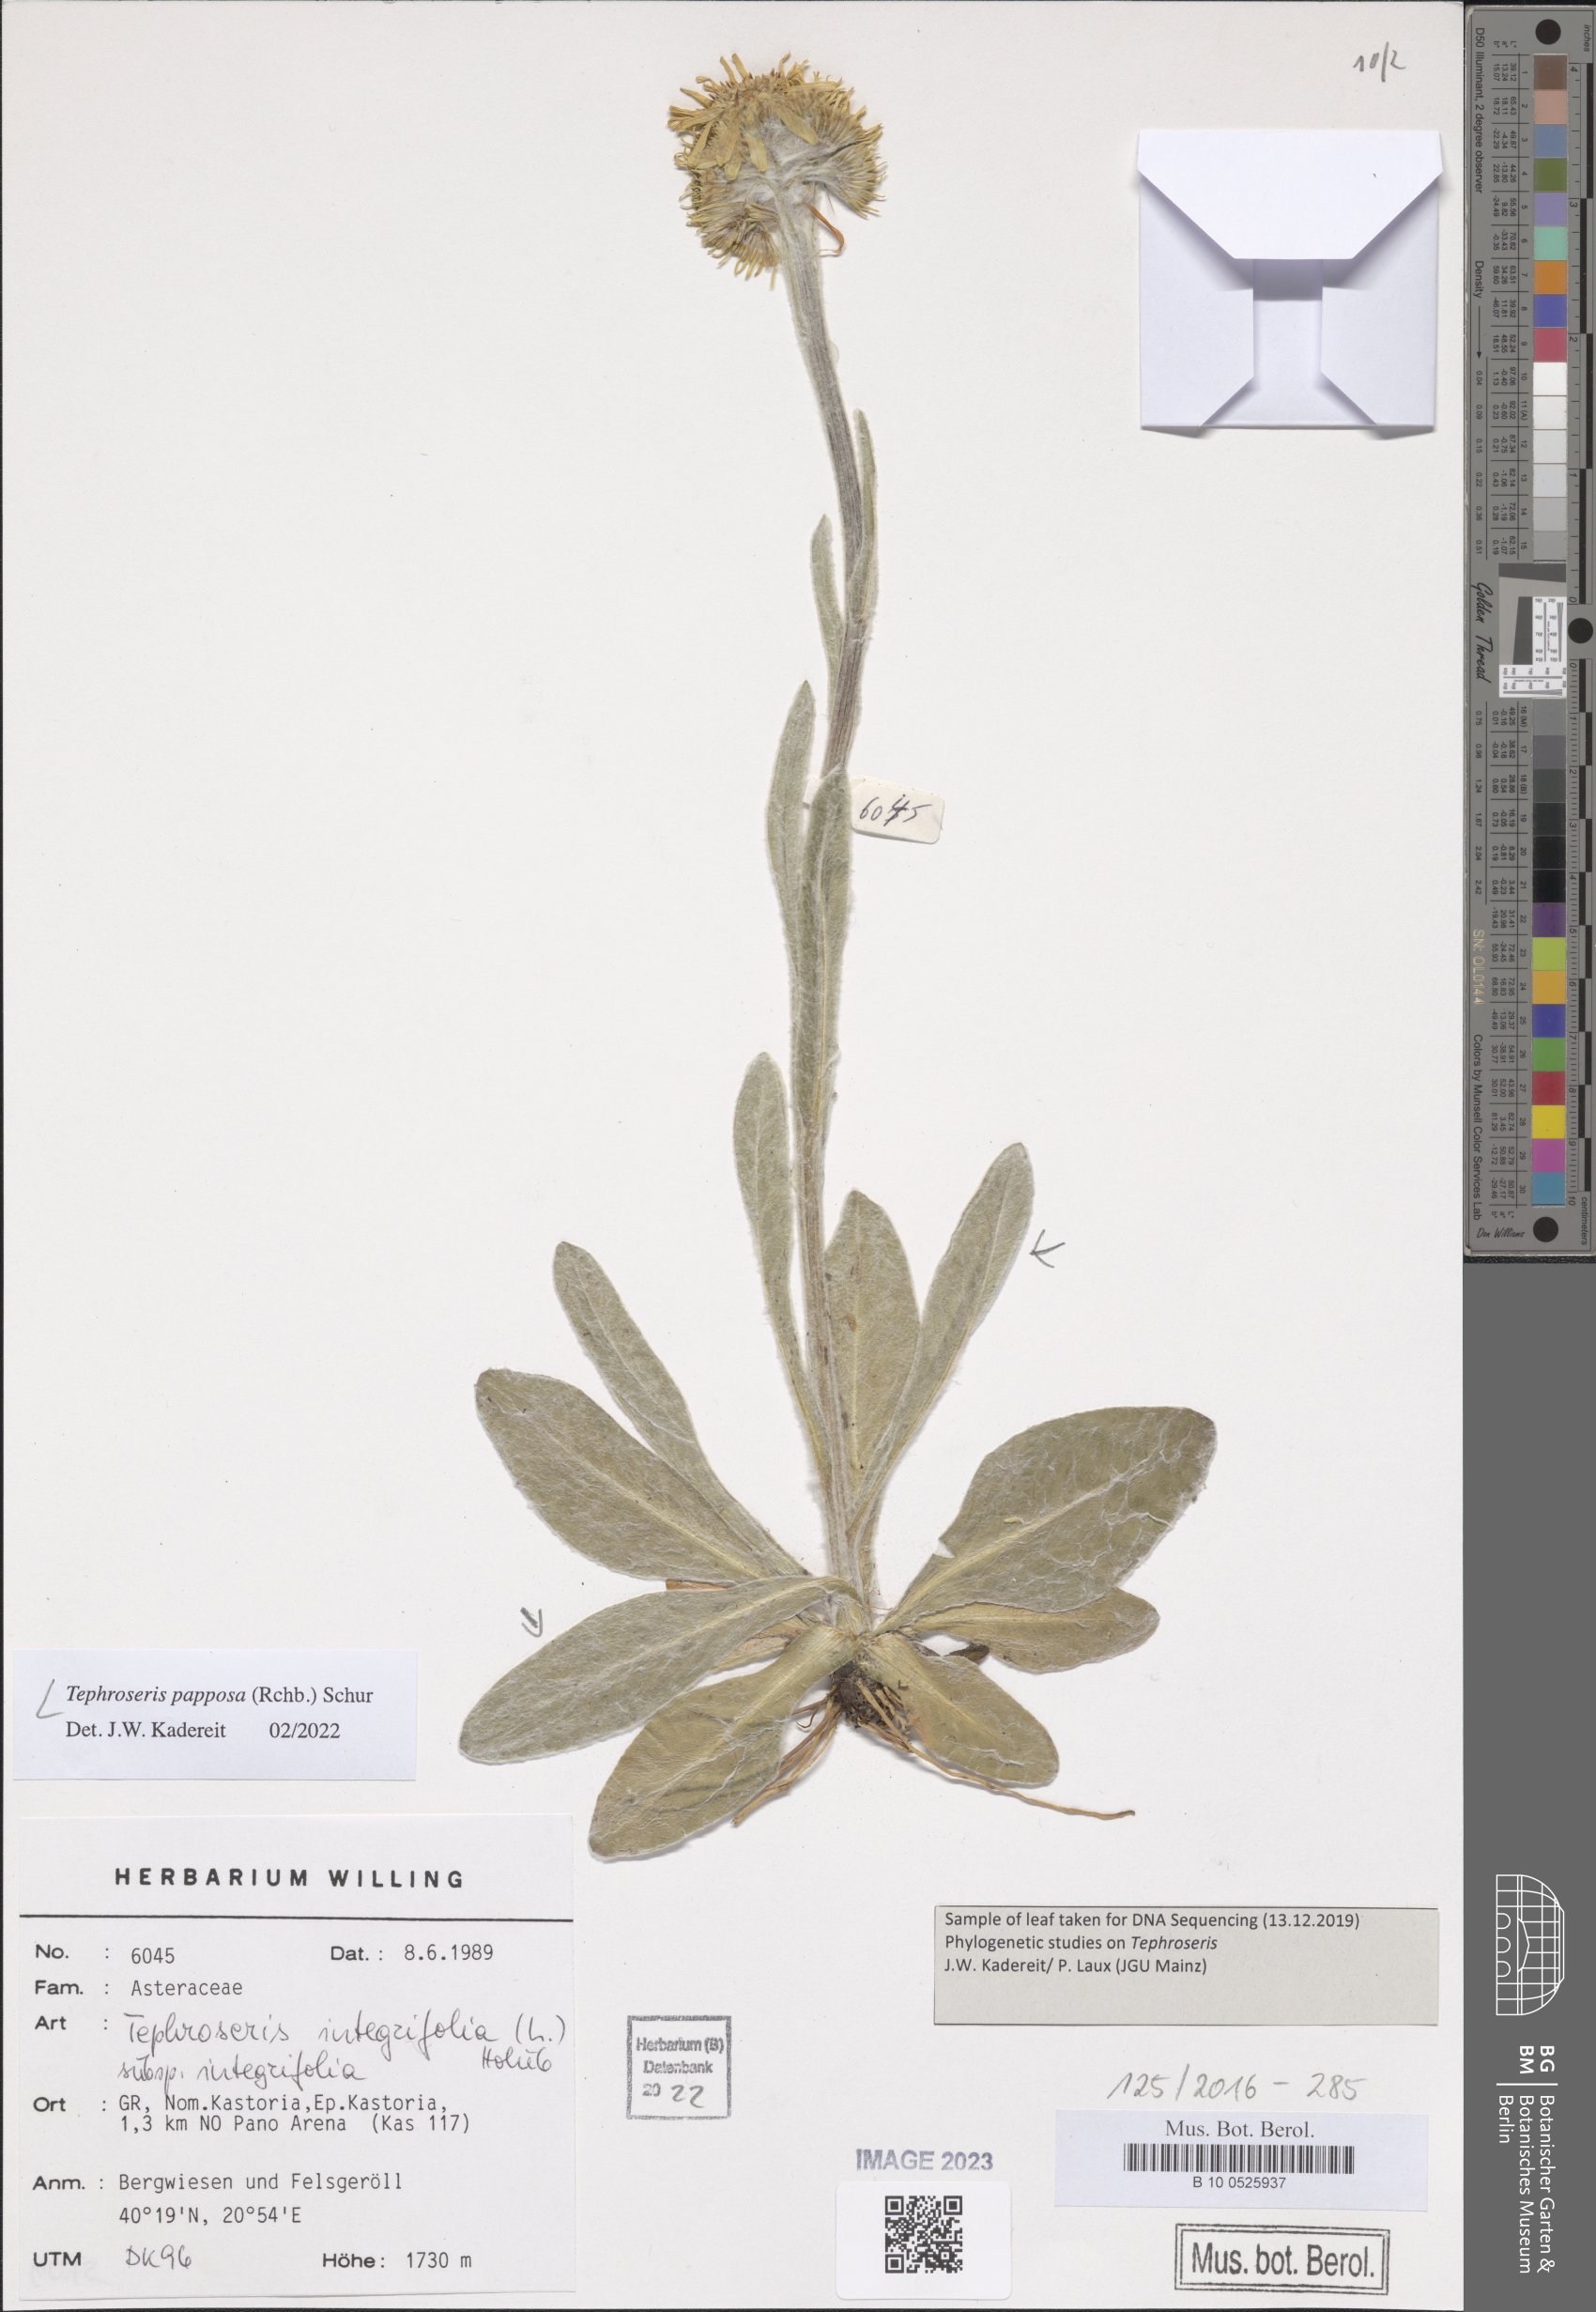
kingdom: Plantae
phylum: Tracheophyta
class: Magnoliopsida
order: Asterales
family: Asteraceae
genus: Tephroseris
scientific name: Tephroseris papposa
